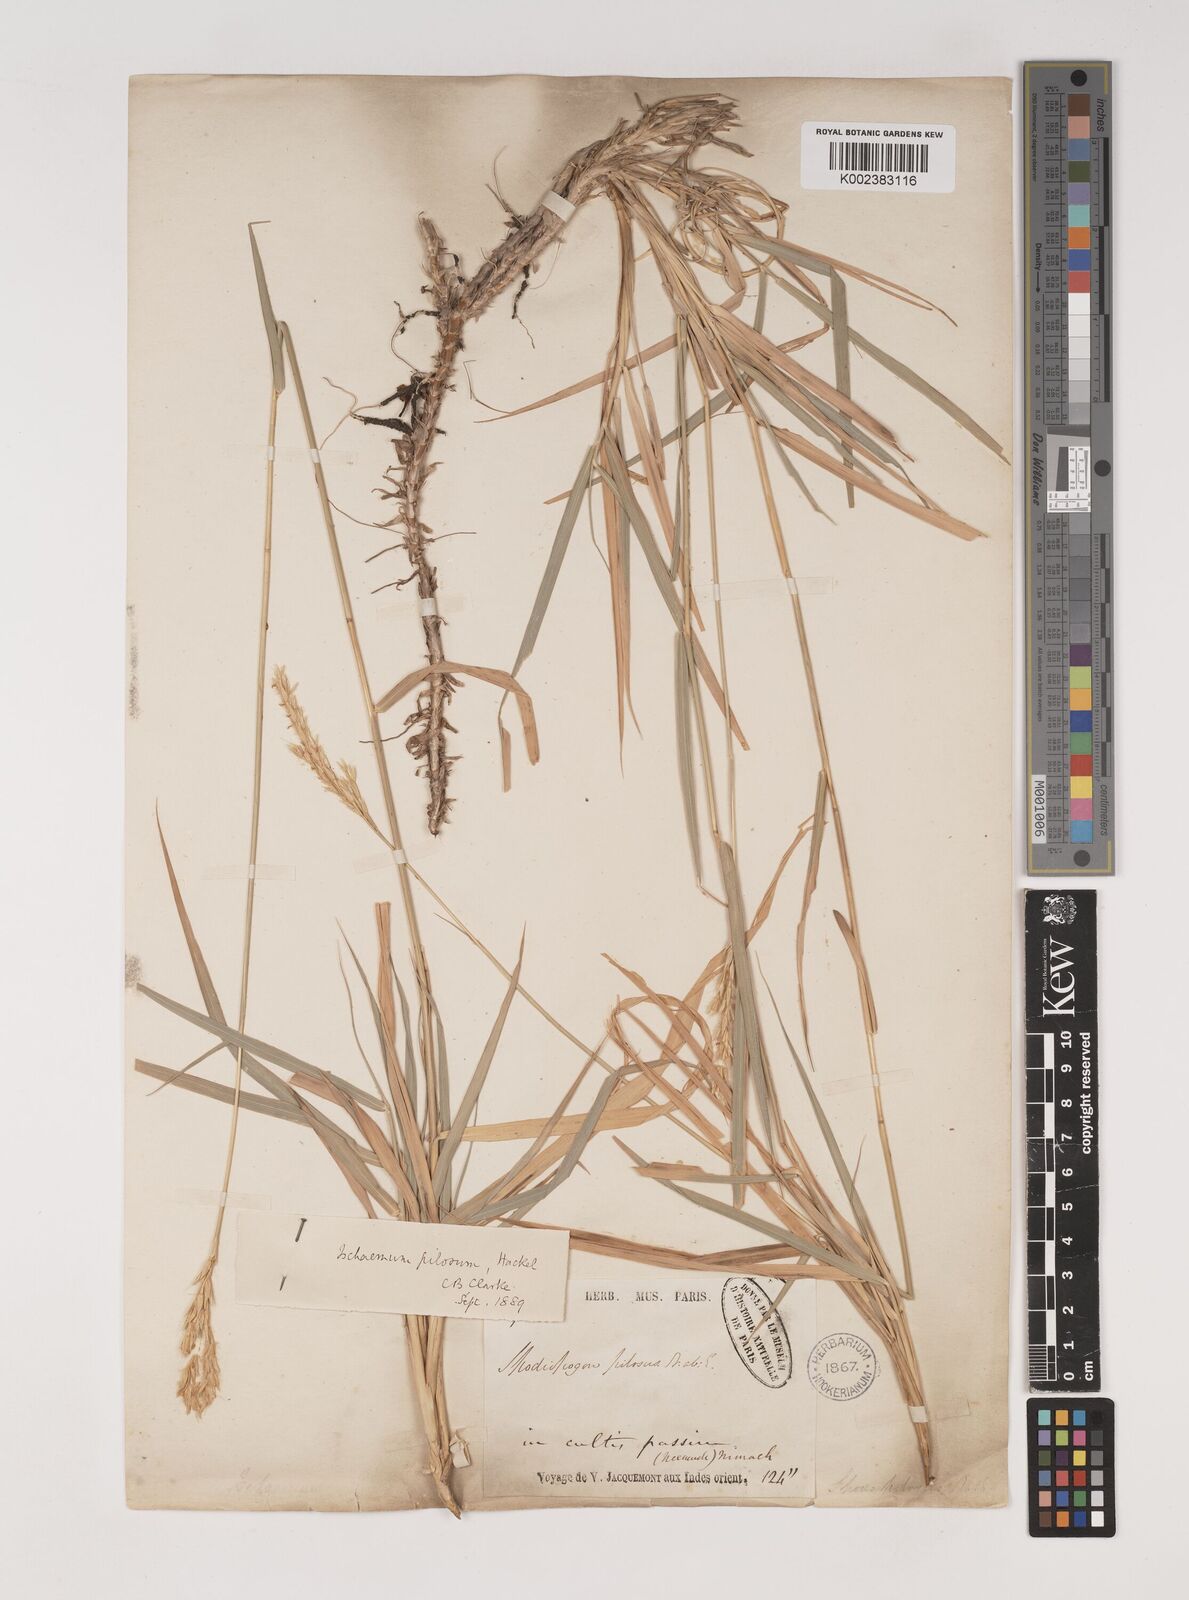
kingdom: Plantae
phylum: Tracheophyta
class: Liliopsida
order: Poales
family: Poaceae
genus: Ischaemum
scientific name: Ischaemum afrum
